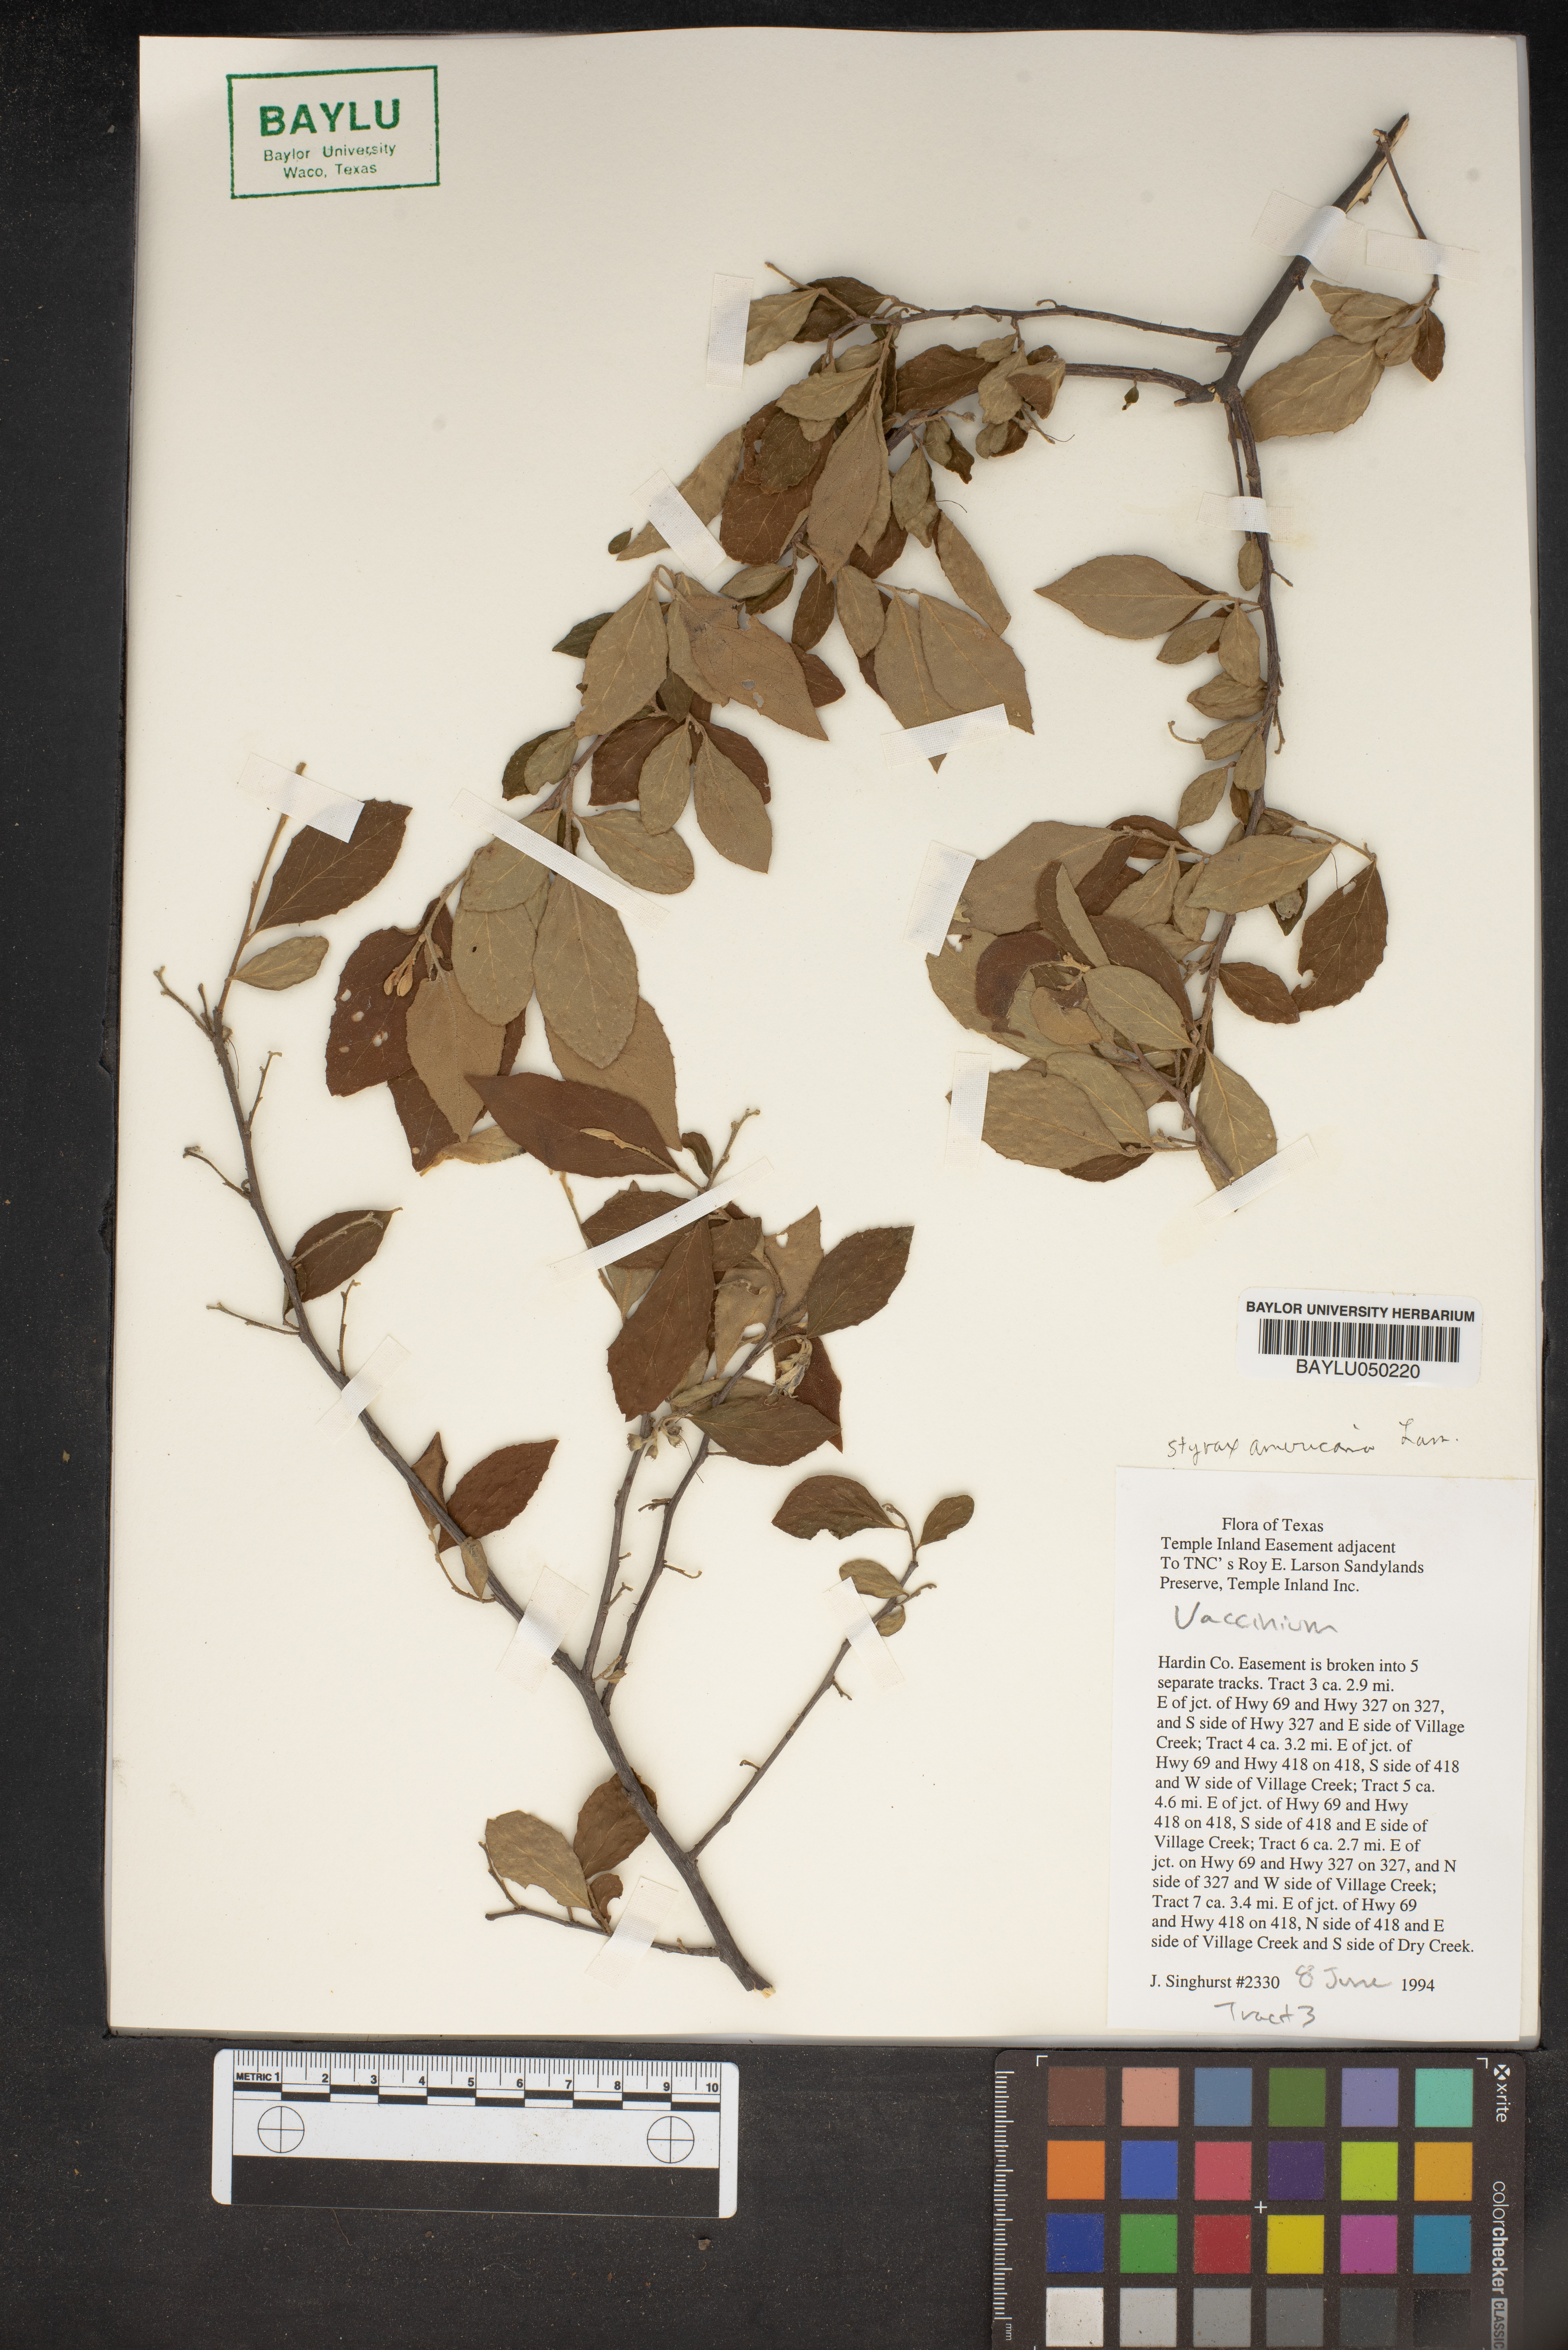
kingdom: Plantae
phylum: Tracheophyta
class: Magnoliopsida
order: Ericales
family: Ericaceae
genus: Vaccinium
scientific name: Vaccinium
